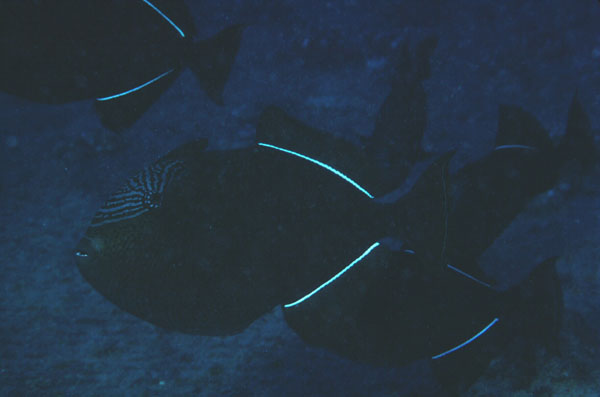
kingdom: Animalia
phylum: Chordata
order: Tetraodontiformes
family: Balistidae
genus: Melichthys
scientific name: Melichthys niger
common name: Black durgon
